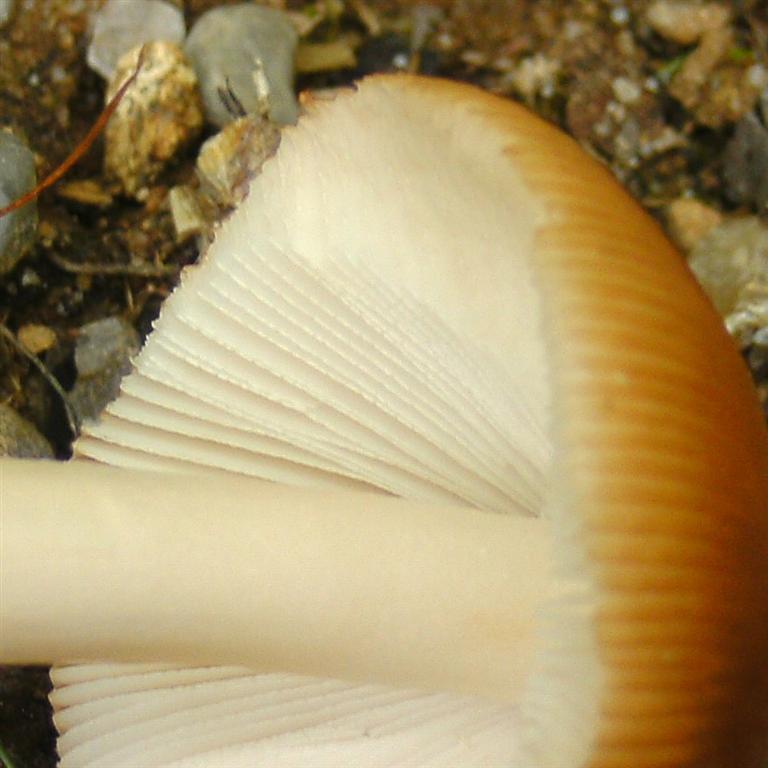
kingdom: Fungi
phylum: Basidiomycota
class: Agaricomycetes
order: Agaricales
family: Amanitaceae
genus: Amanita
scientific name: Amanita fulva
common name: brun kam-fluesvamp
